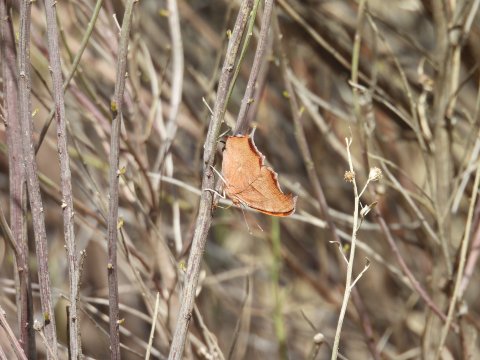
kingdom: Animalia
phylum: Arthropoda
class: Insecta
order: Lepidoptera
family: Nymphalidae
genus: Polygonia
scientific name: Polygonia interrogationis
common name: Question Mark
